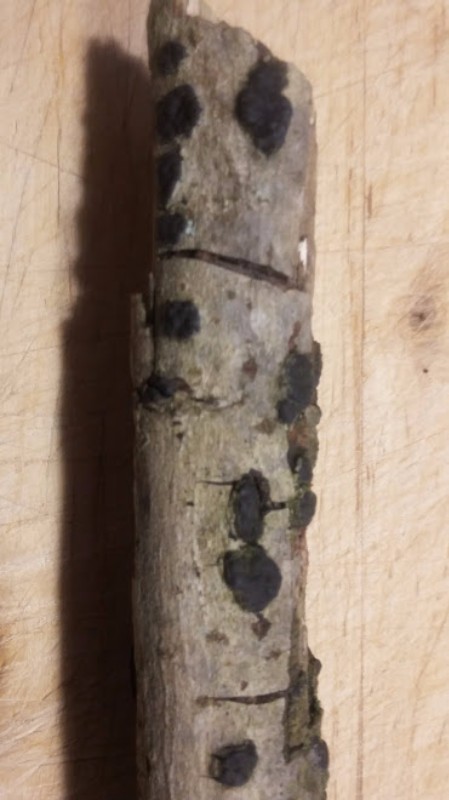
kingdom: Fungi
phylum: Ascomycota
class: Sordariomycetes
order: Xylariales
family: Diatrypaceae
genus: Diatrype
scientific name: Diatrype disciformis
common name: kant-kulskorpe
